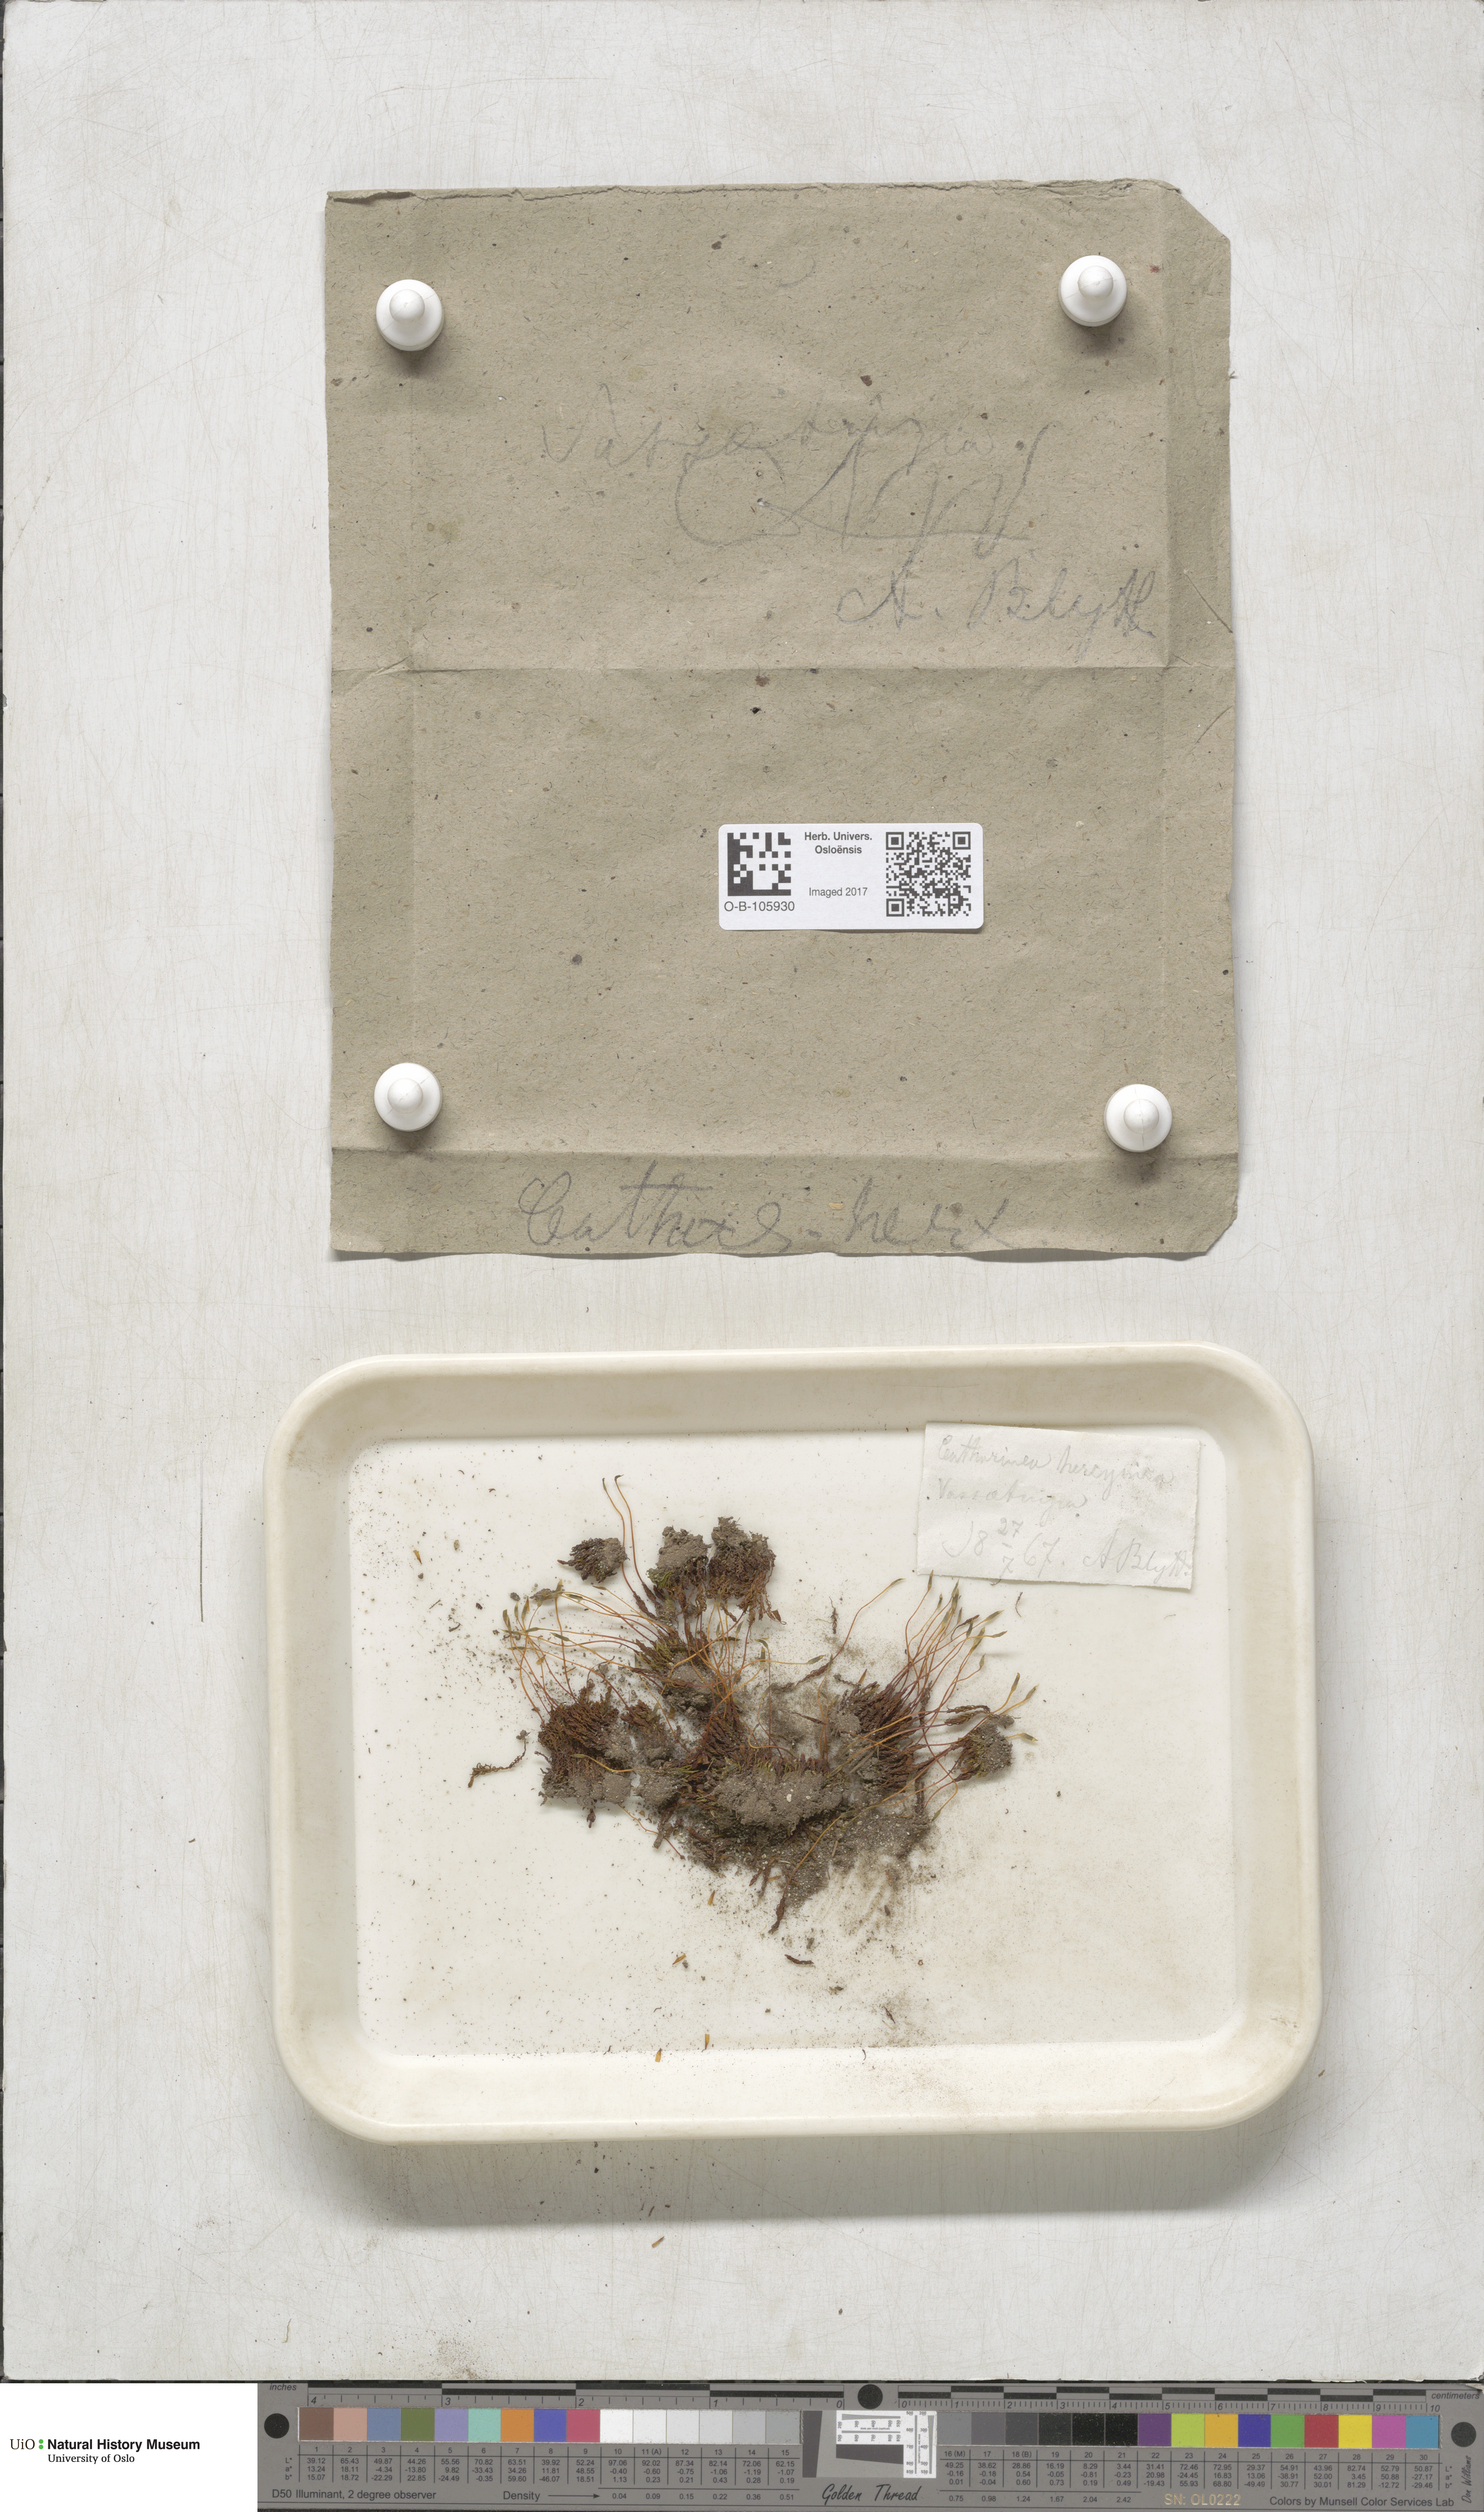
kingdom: Plantae
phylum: Bryophyta
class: Polytrichopsida
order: Polytrichales
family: Polytrichaceae
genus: Oligotrichum
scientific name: Oligotrichum hercynicum
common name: Hercynian hair moss
